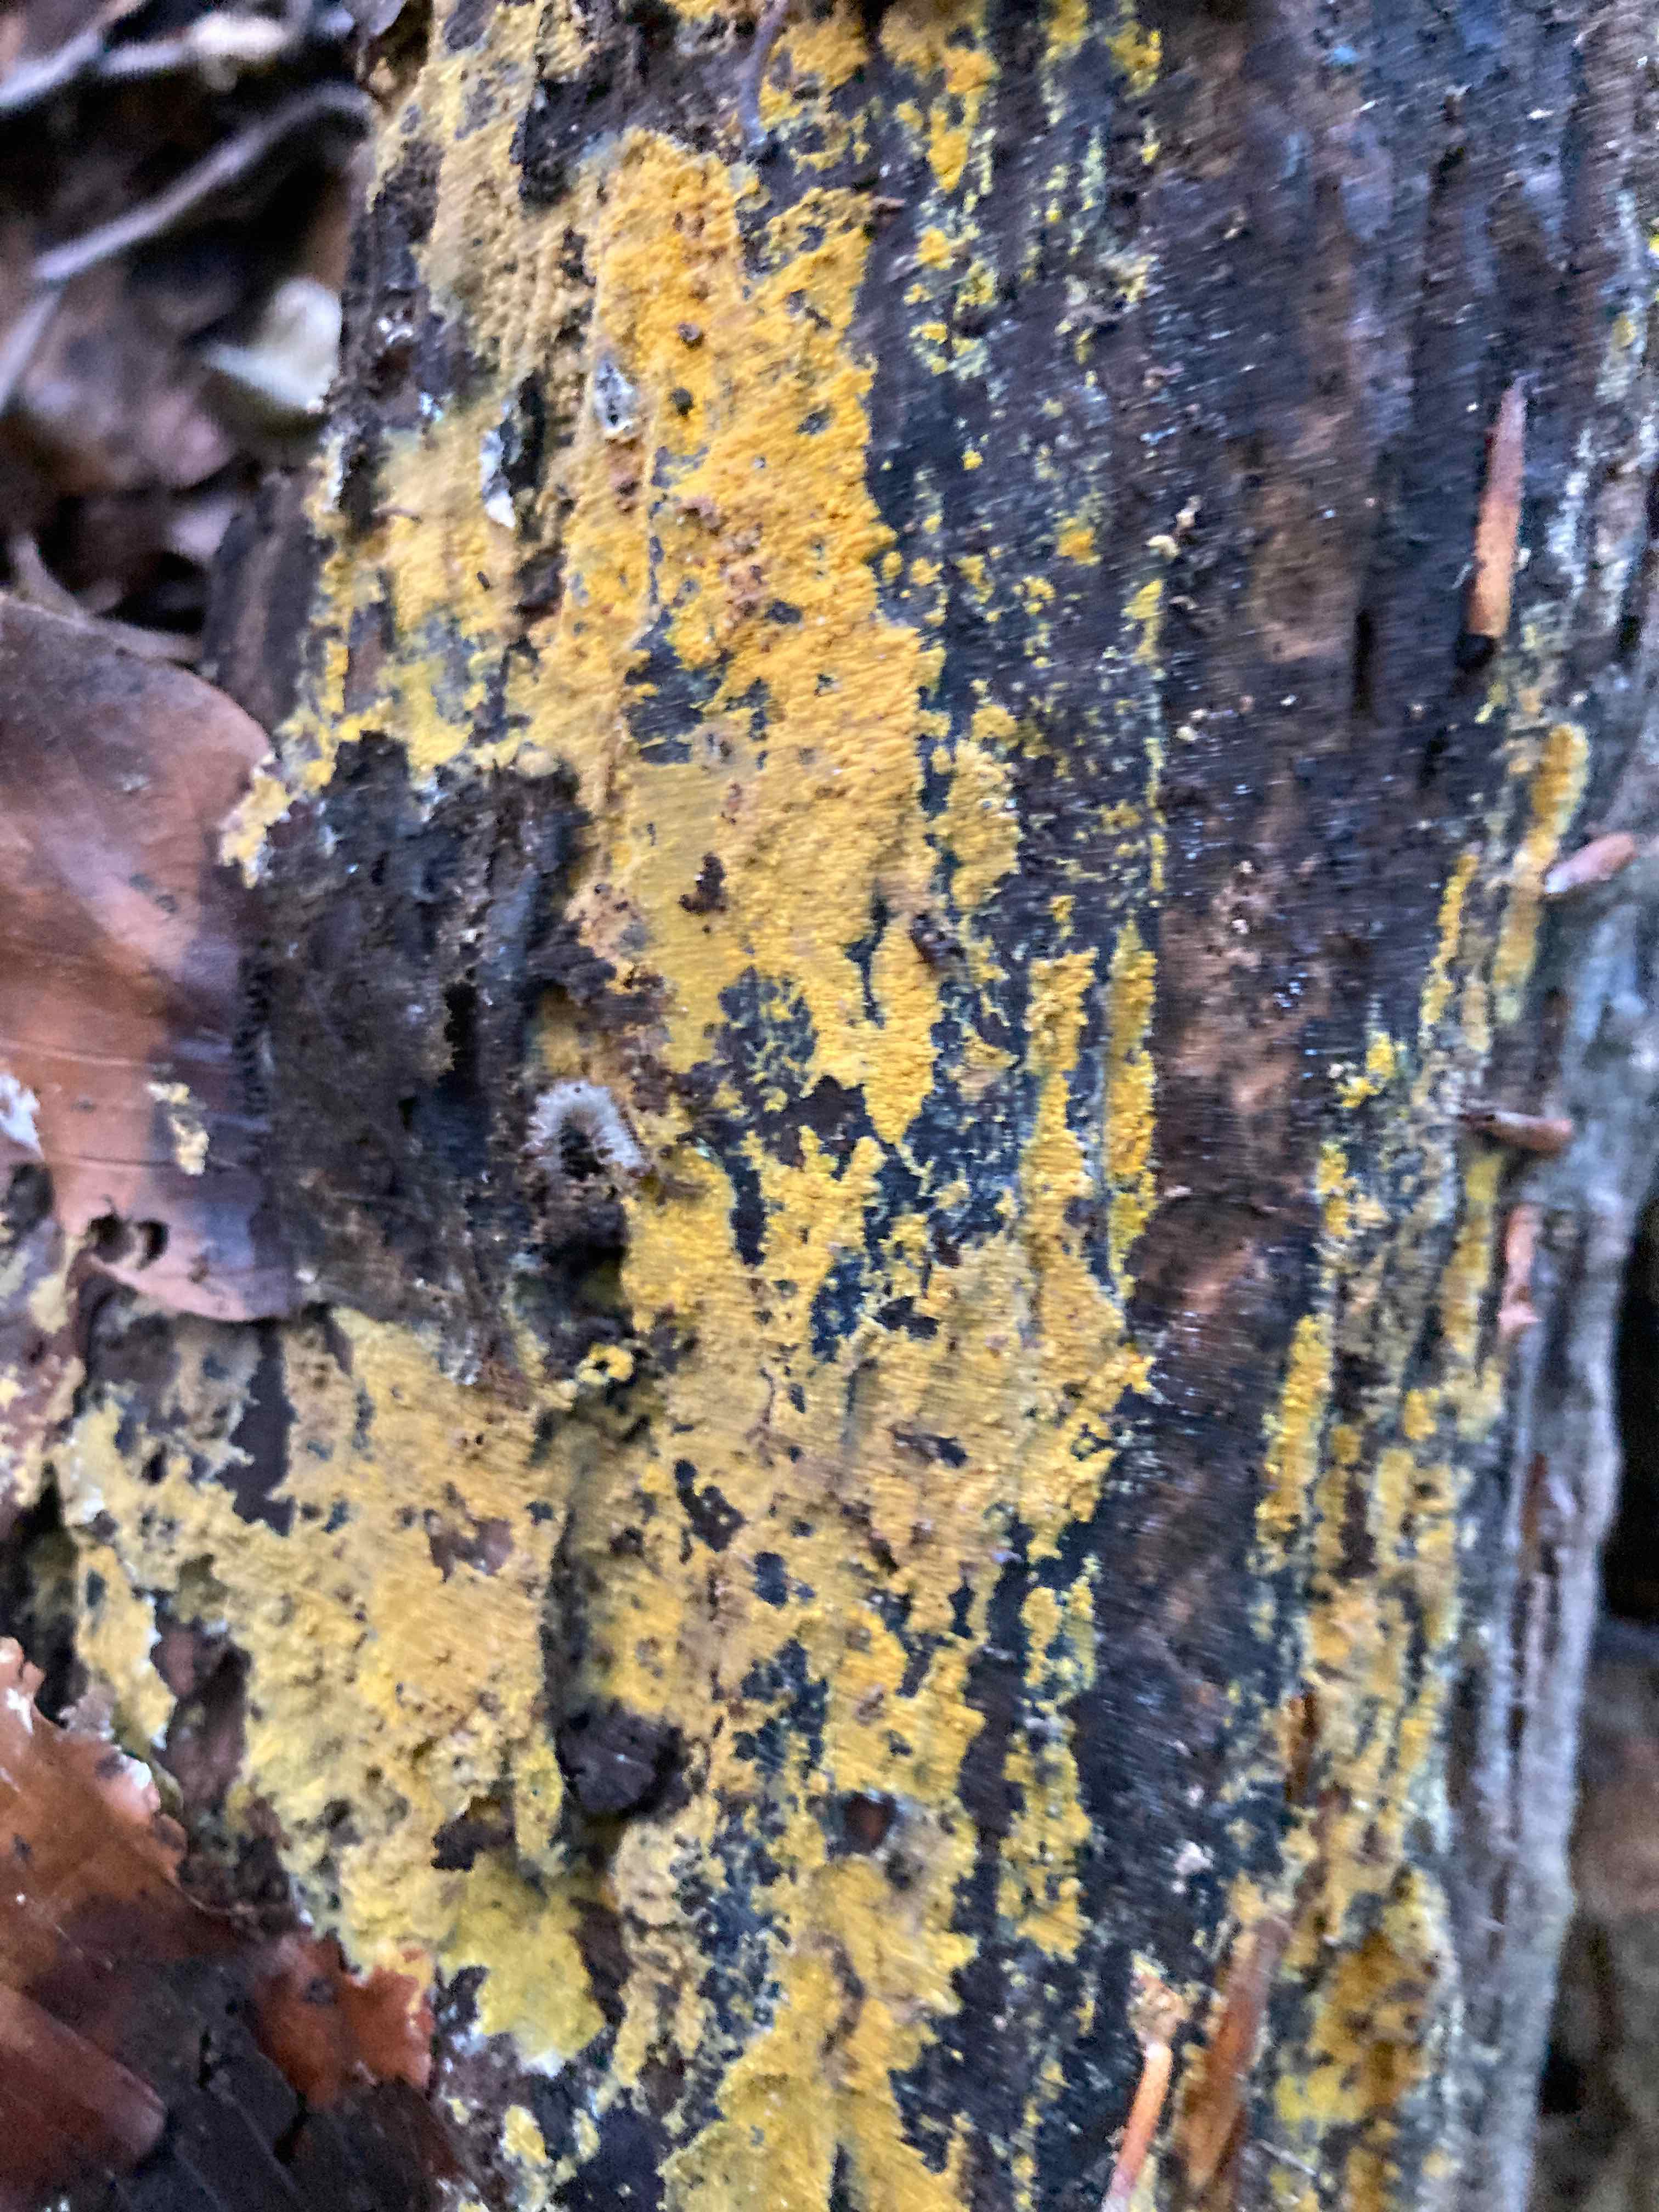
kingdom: Fungi
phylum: Basidiomycota
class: Agaricomycetes
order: Polyporales
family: Meruliaceae
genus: Phlebiodontia
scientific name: Phlebiodontia subochracea
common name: svovl-åresvamp
